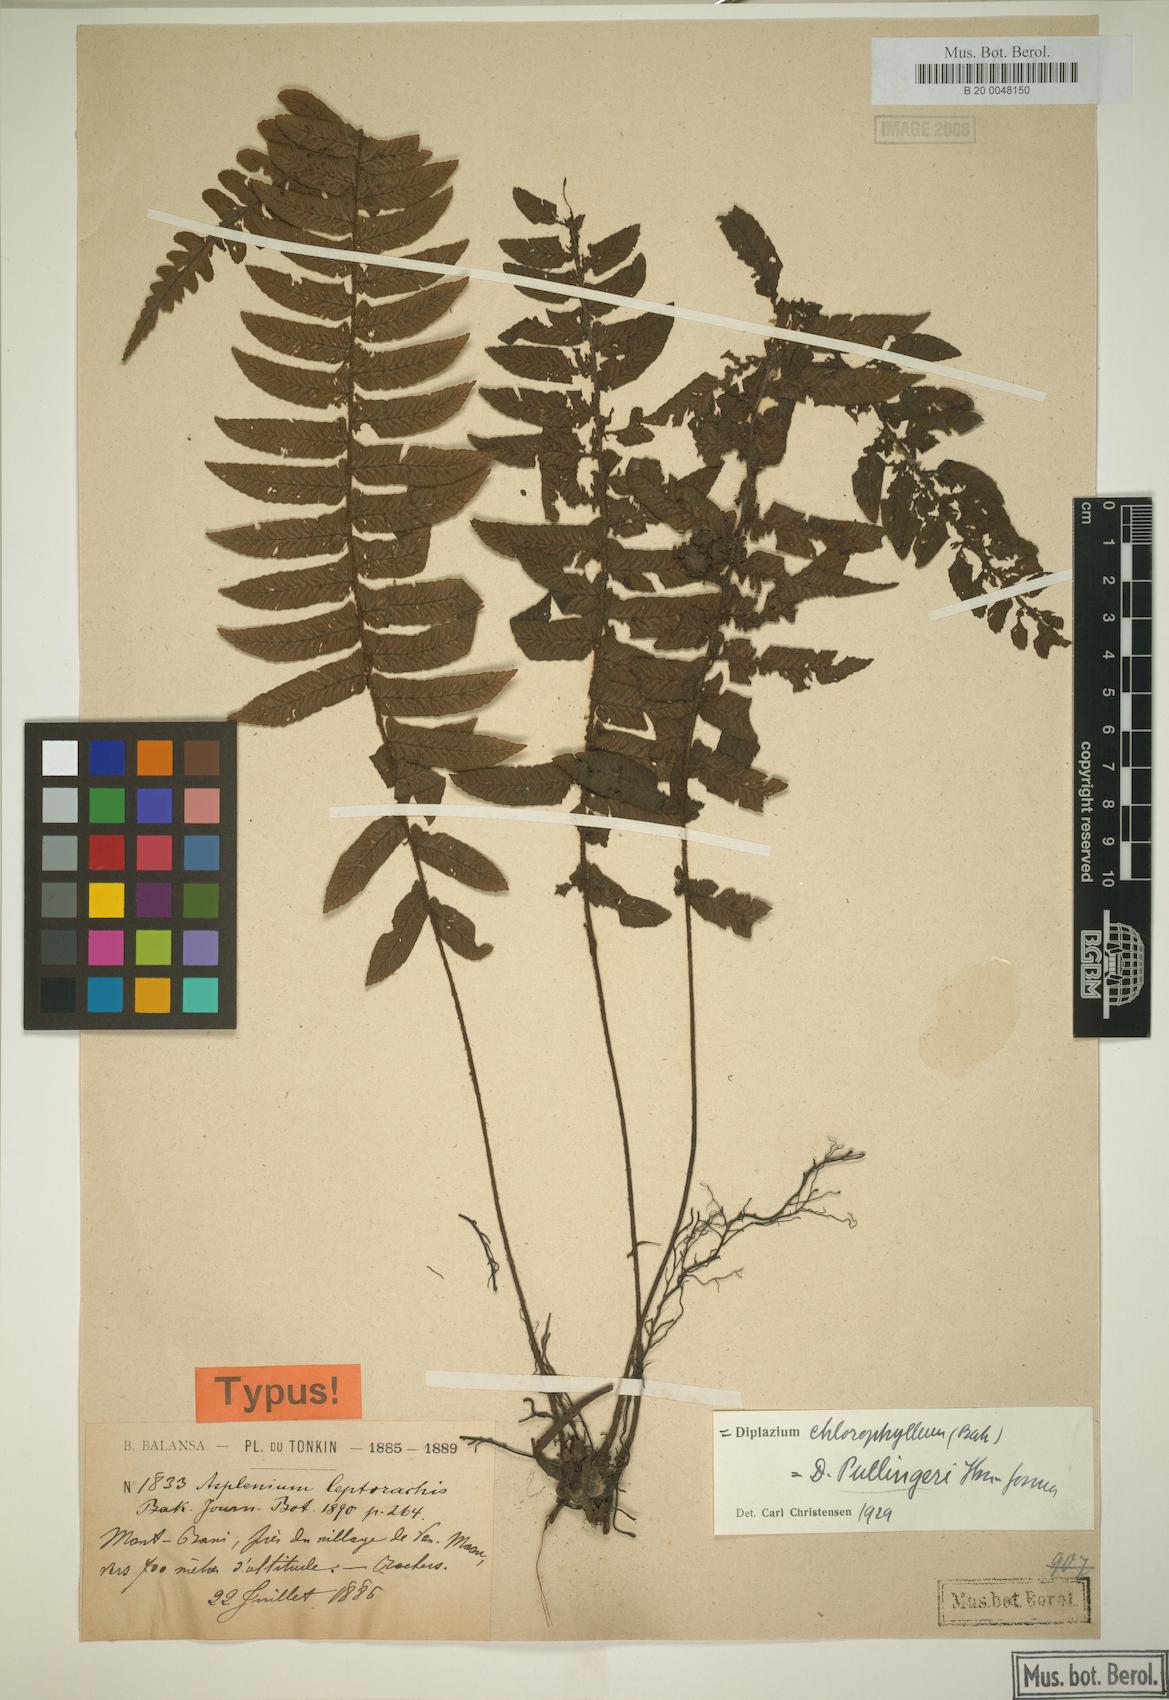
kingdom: Plantae
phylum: Tracheophyta
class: Polypodiopsida
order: Polypodiales
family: Athyriaceae
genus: Diplazium
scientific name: Diplazium pullingeri
